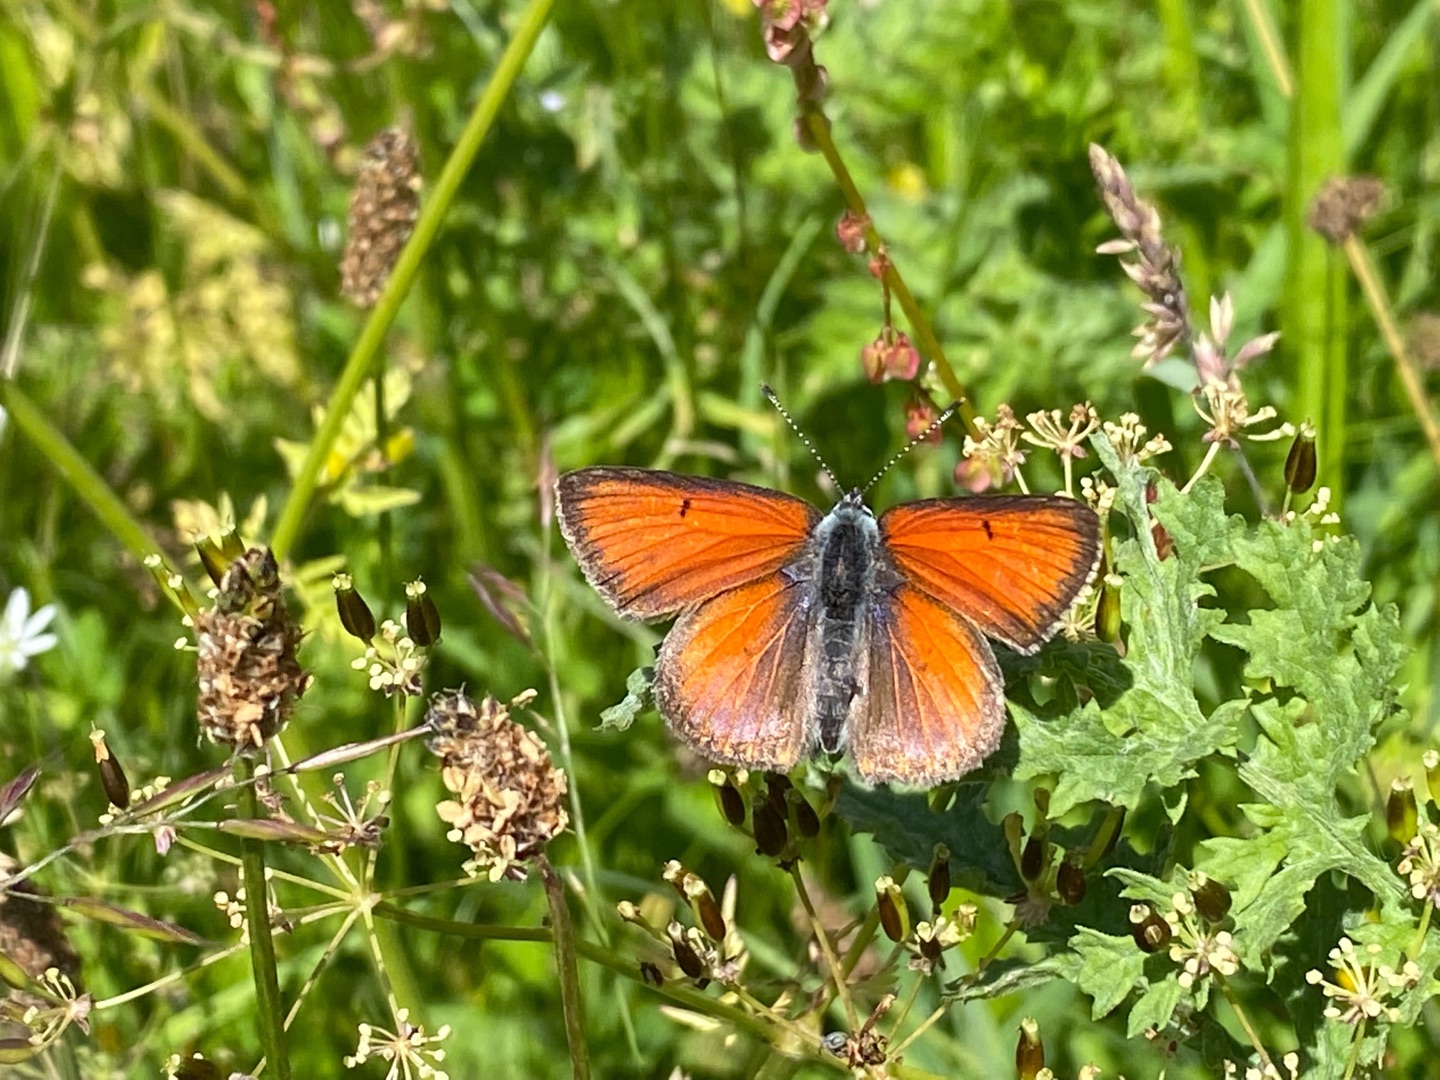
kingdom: Animalia
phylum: Arthropoda
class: Insecta
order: Lepidoptera
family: Lycaenidae
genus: Palaeochrysophanus
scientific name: Palaeochrysophanus hippothoe
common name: Violetrandet ildfugl
